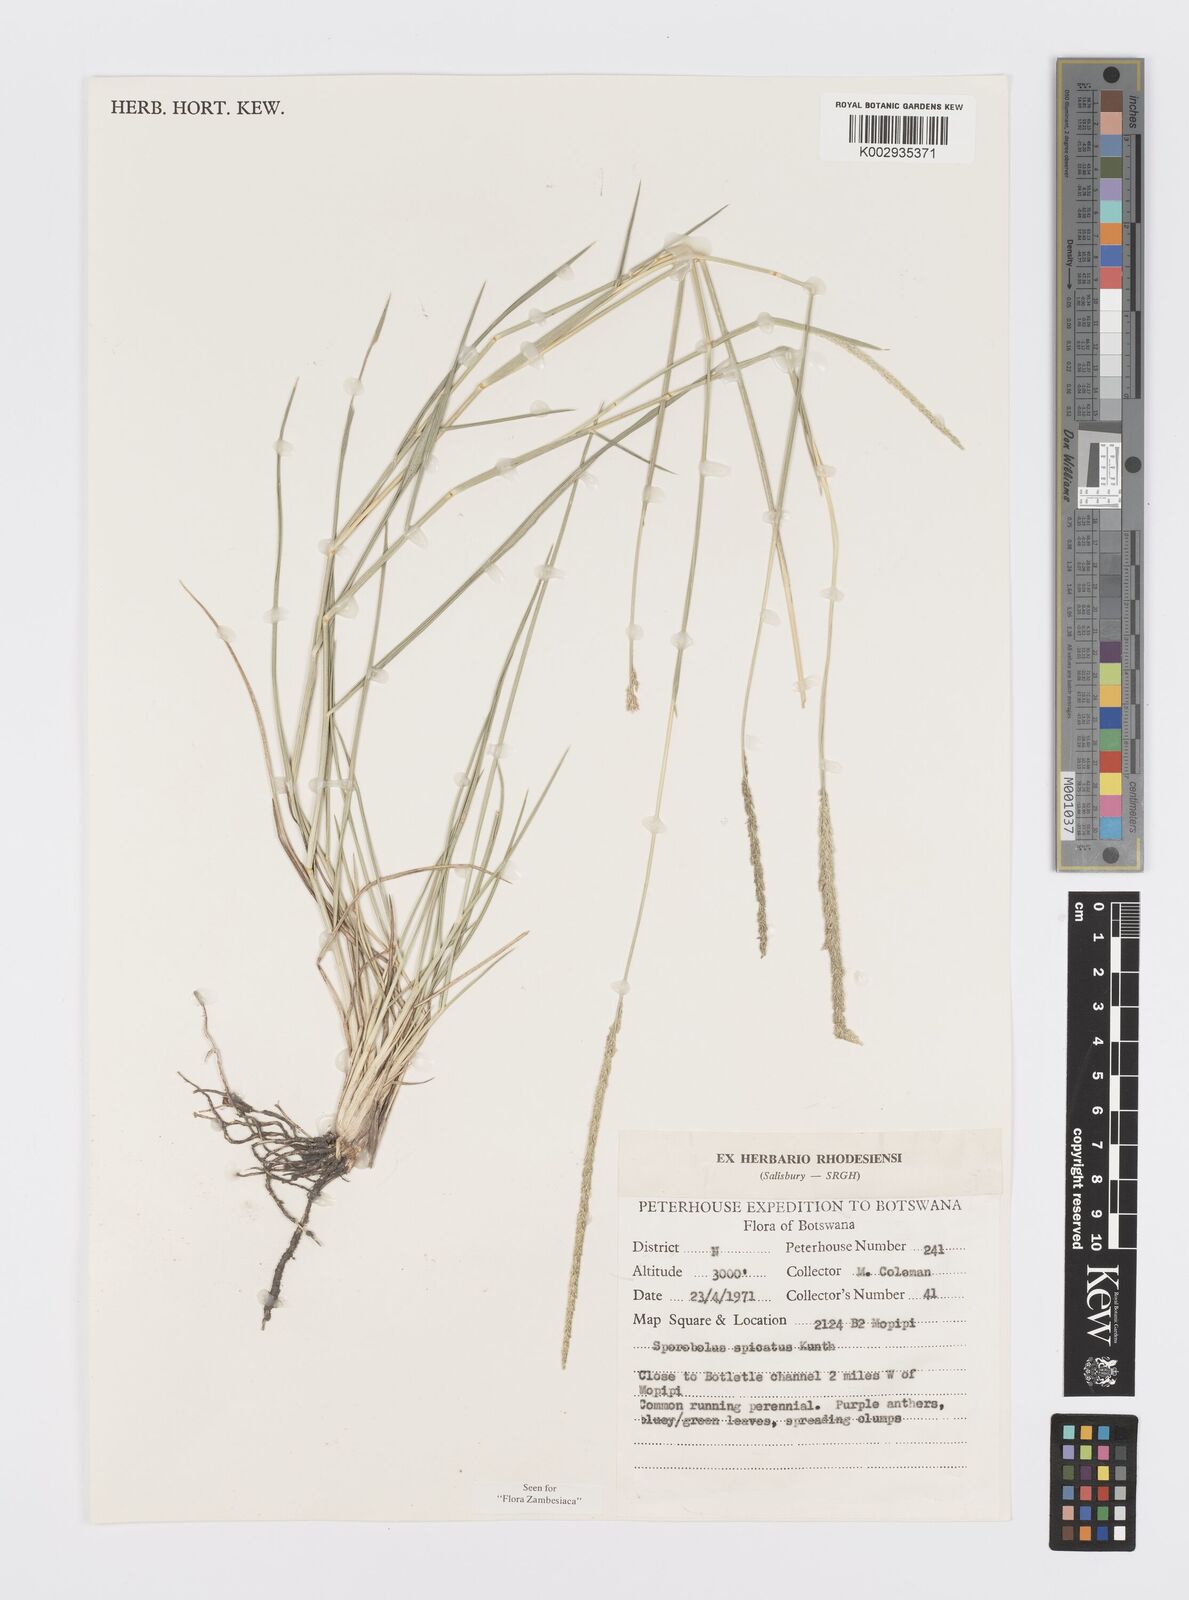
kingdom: Plantae
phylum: Tracheophyta
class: Liliopsida
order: Poales
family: Poaceae
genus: Sporobolus
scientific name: Sporobolus spicatus
